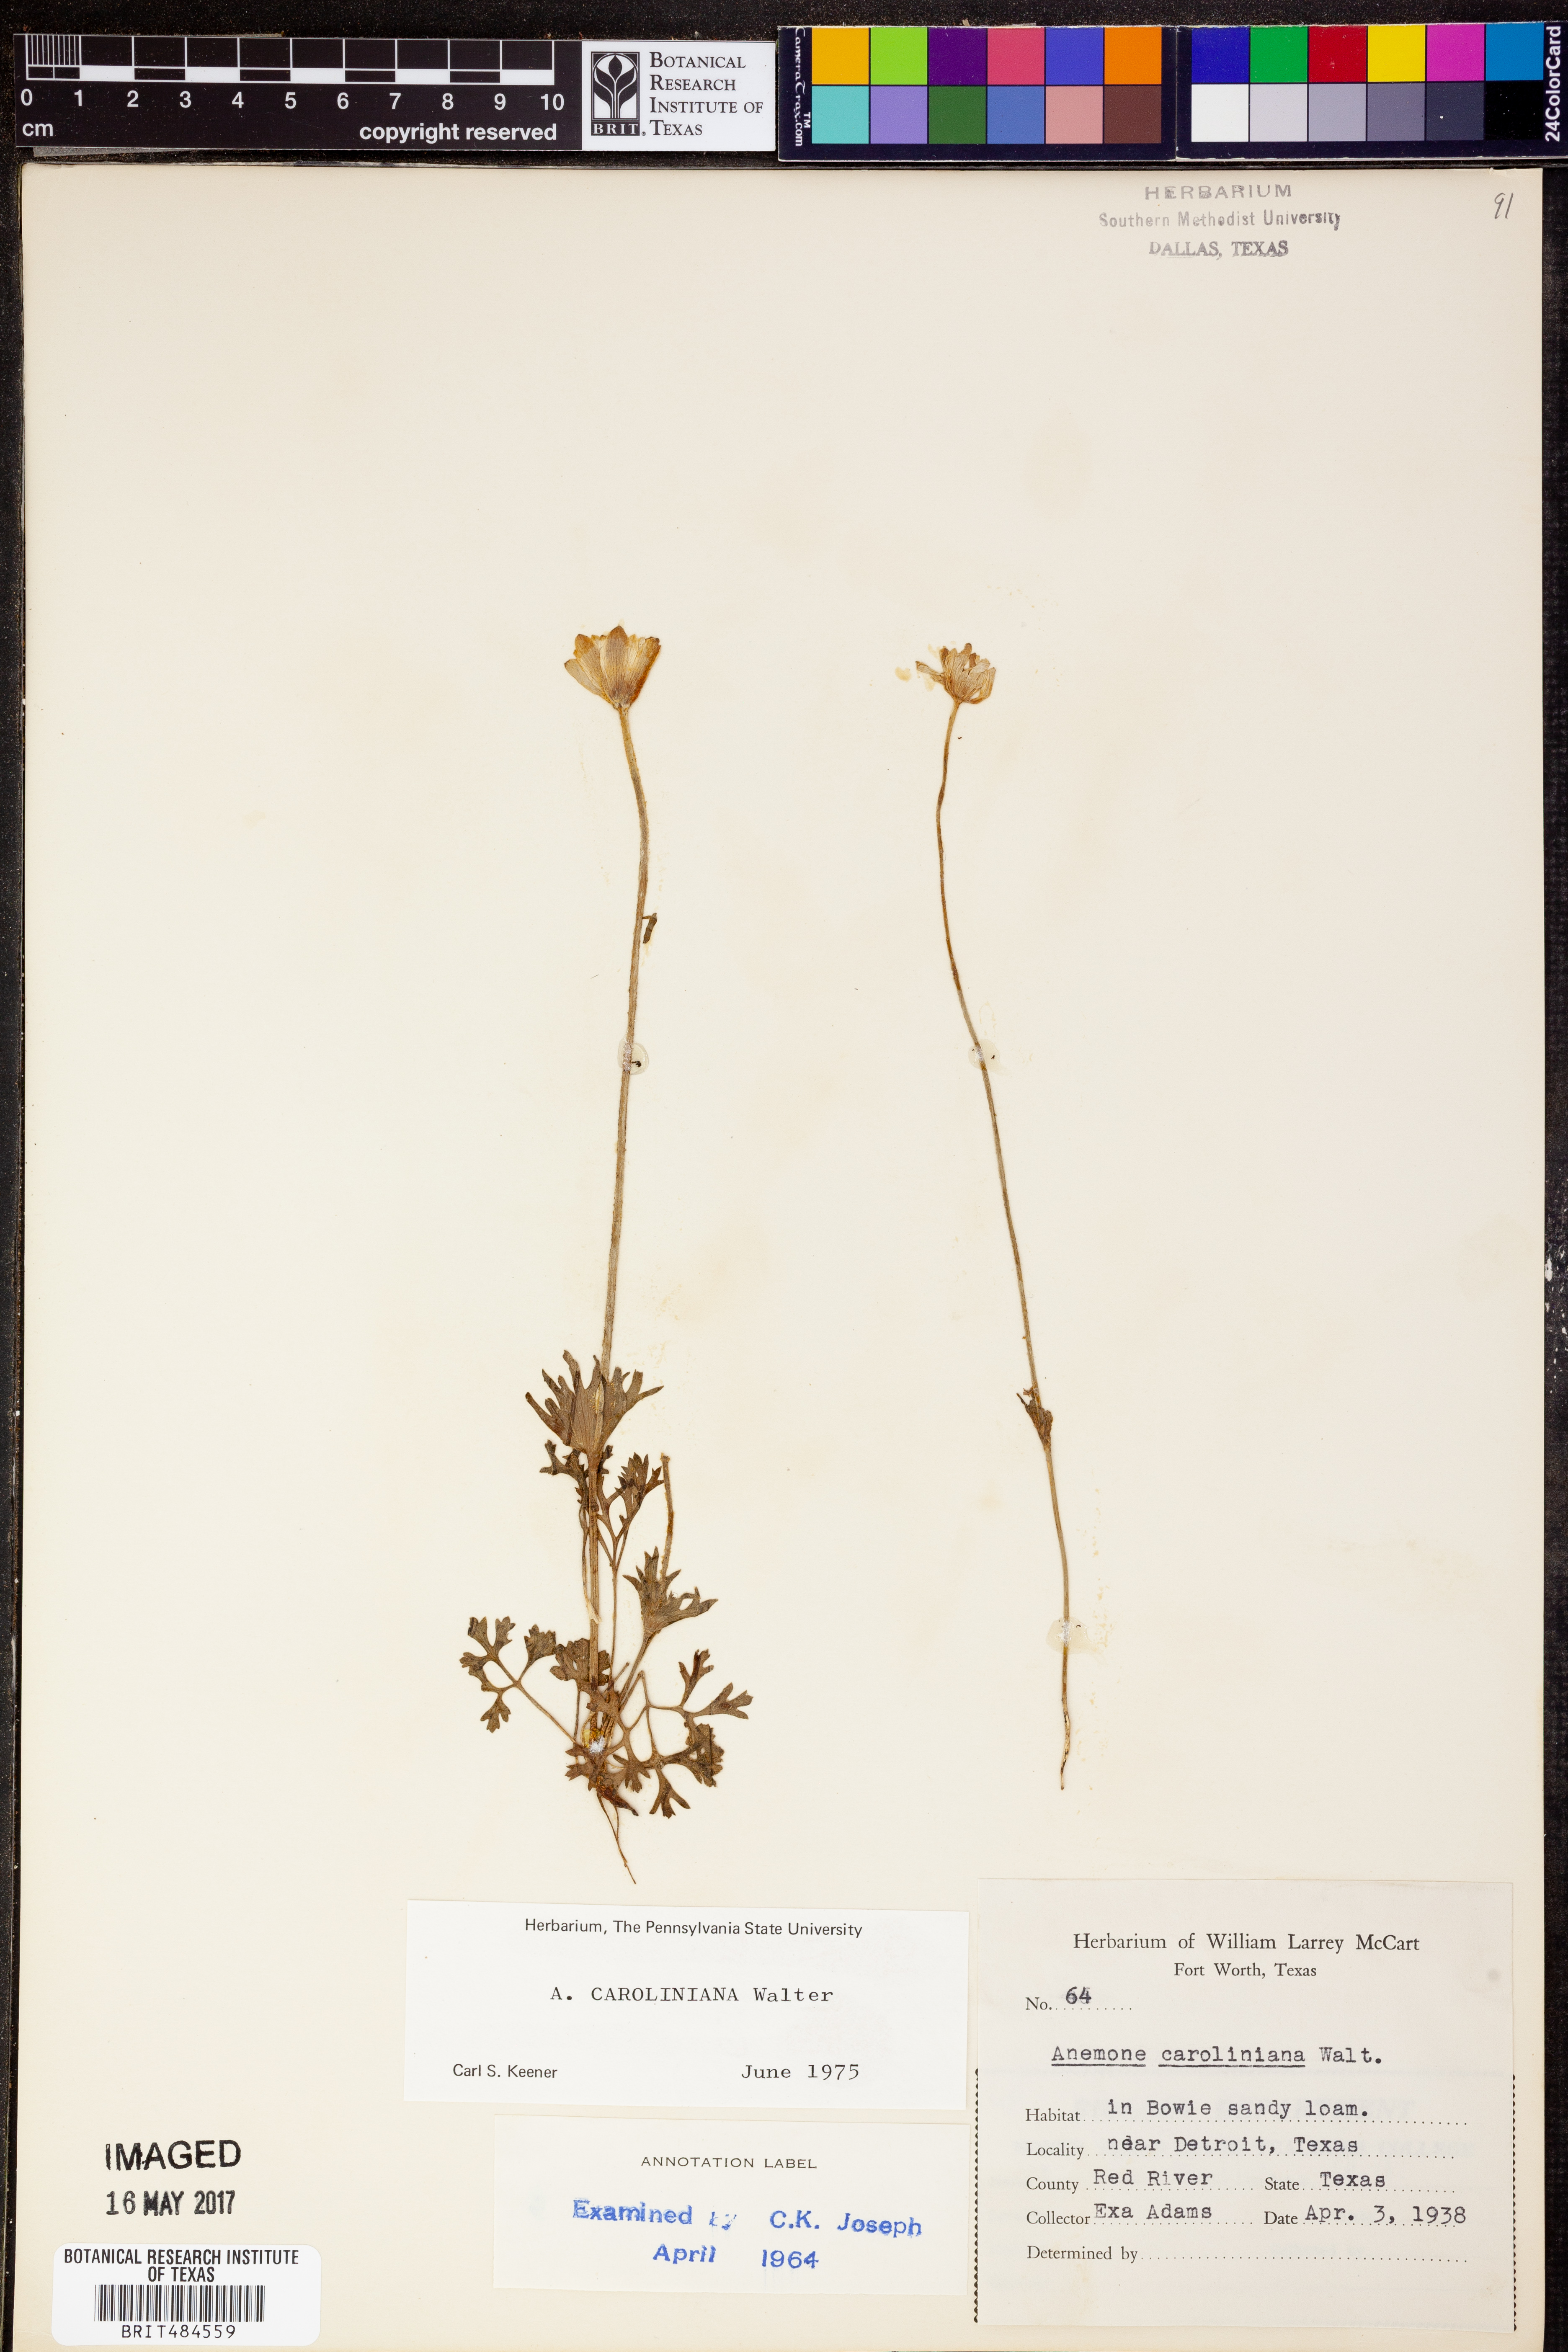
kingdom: Plantae
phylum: Tracheophyta
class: Magnoliopsida
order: Ranunculales
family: Ranunculaceae
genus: Anemone
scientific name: Anemone caroliniana
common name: Carolina anemone
